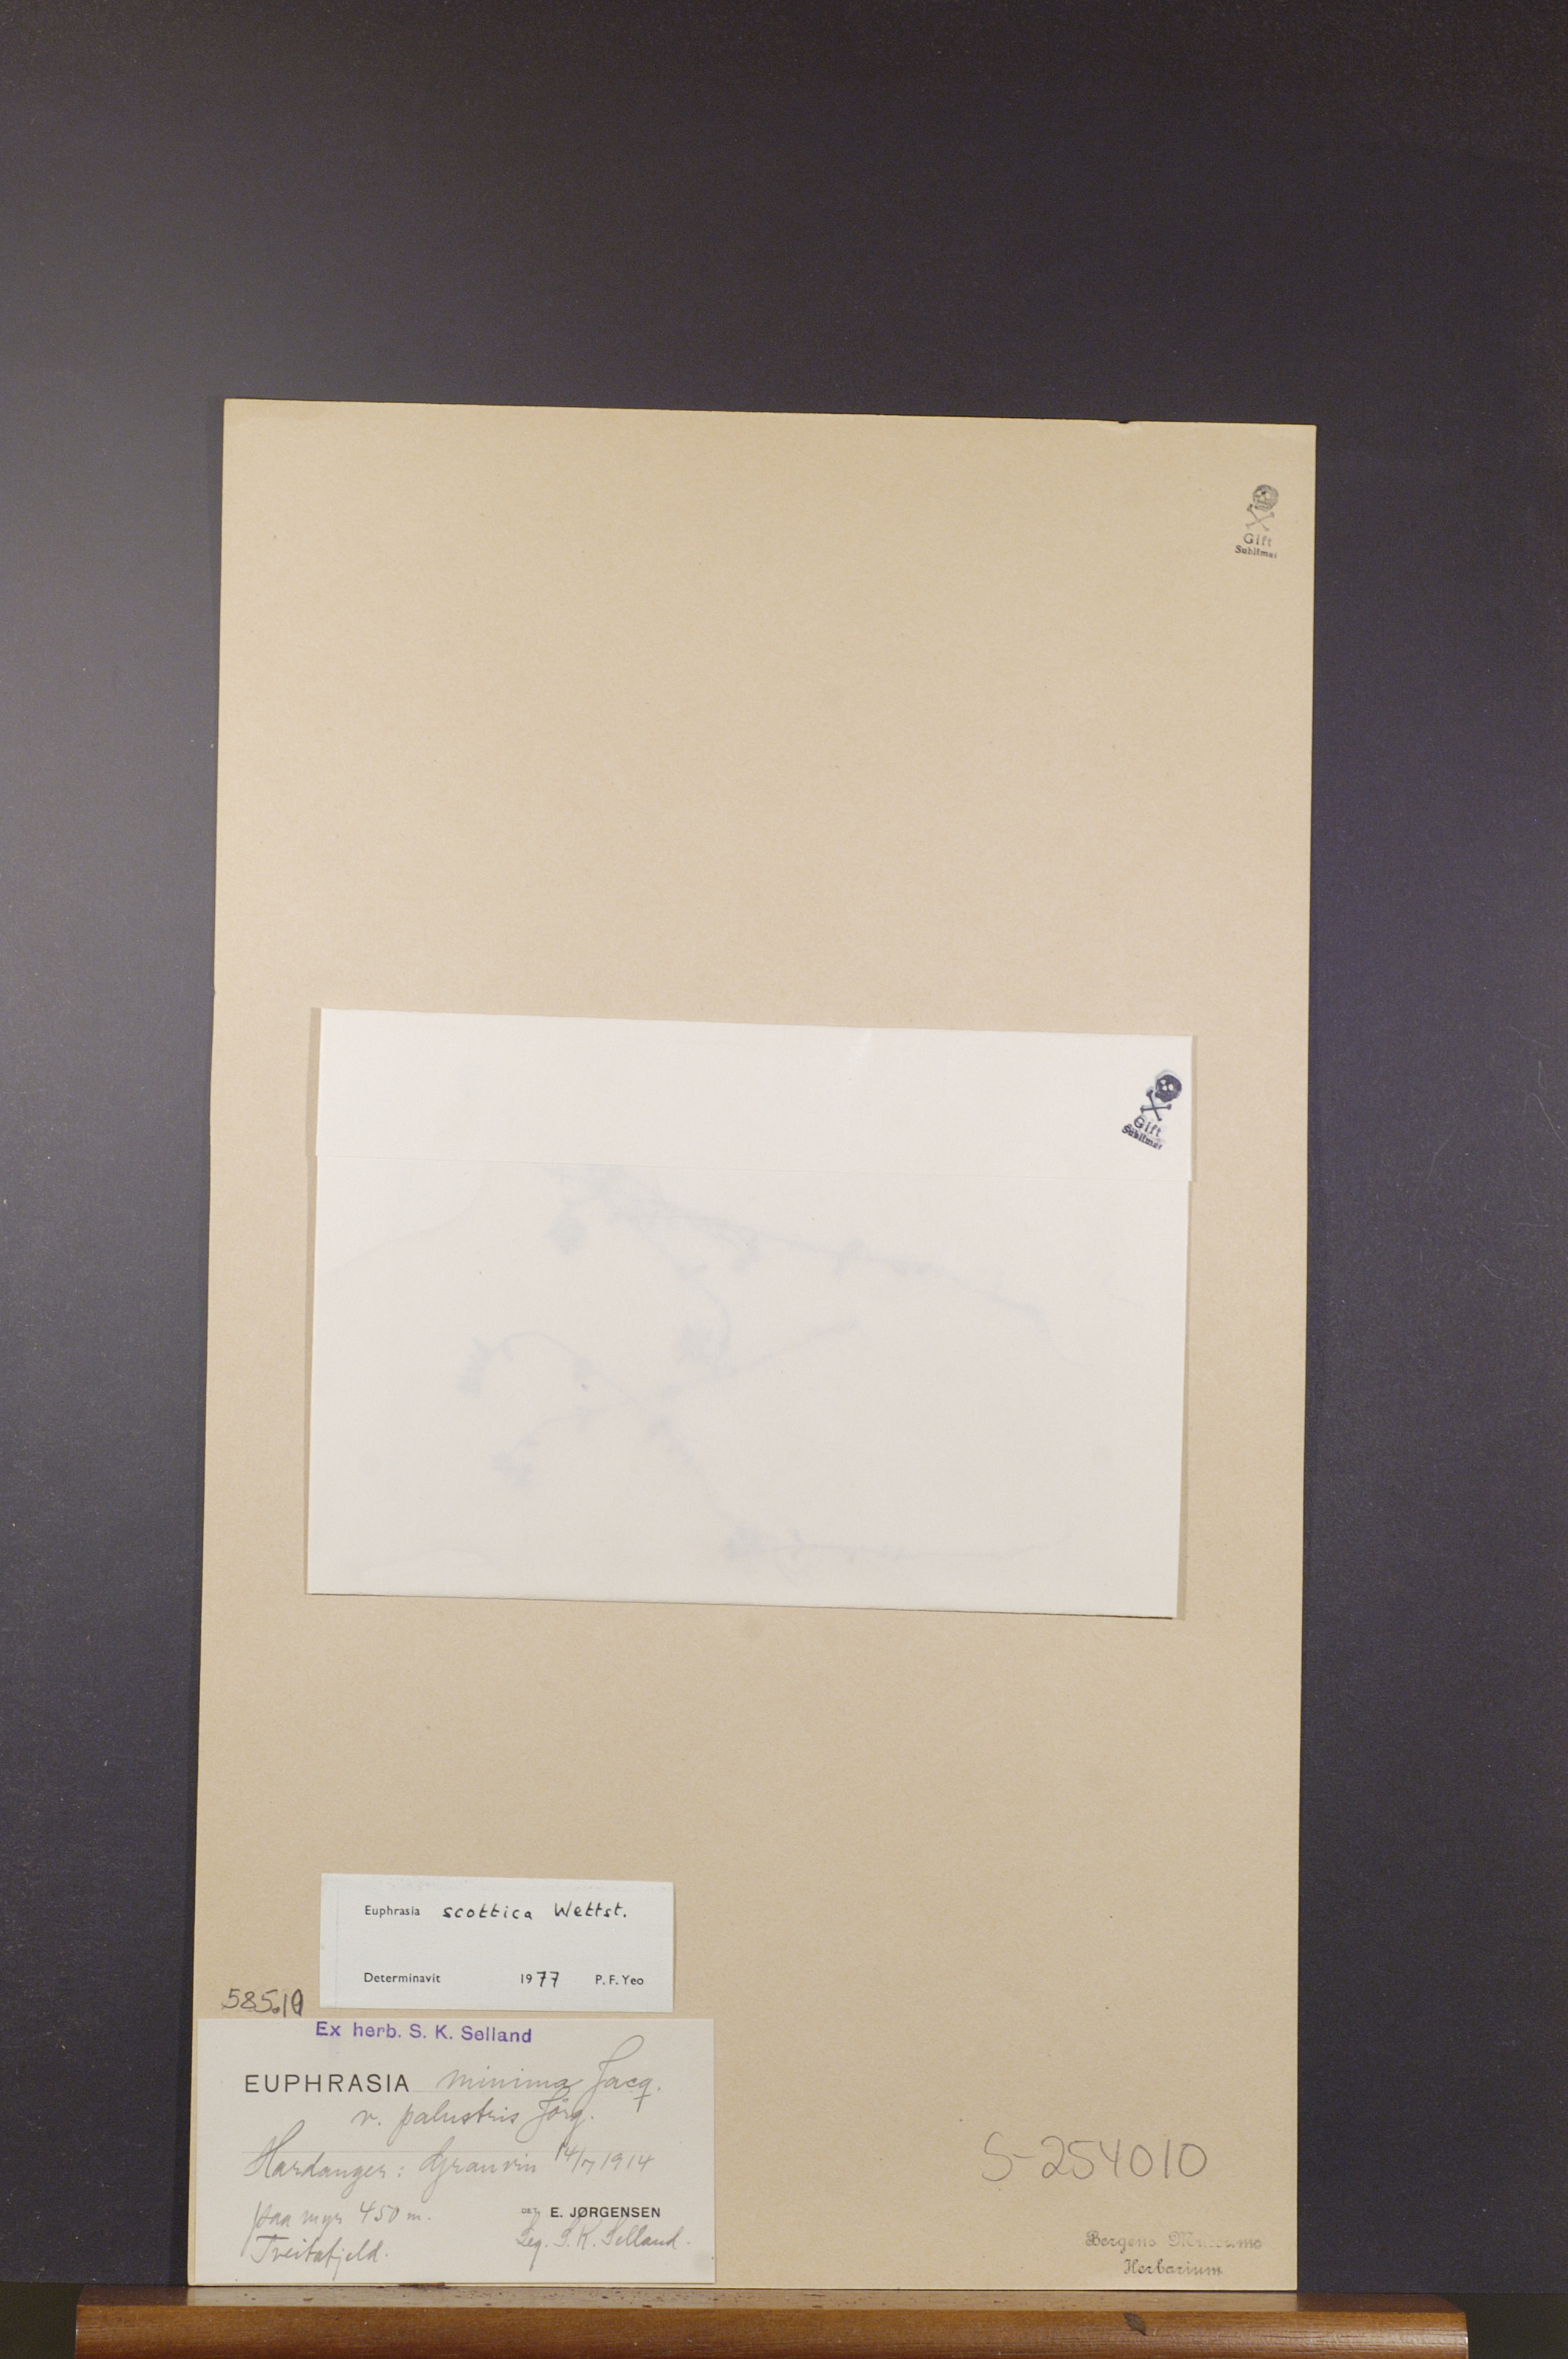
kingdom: Plantae
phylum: Tracheophyta
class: Magnoliopsida
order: Lamiales
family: Orobanchaceae
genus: Euphrasia
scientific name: Euphrasia scottica
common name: Slender scottish eyebright
